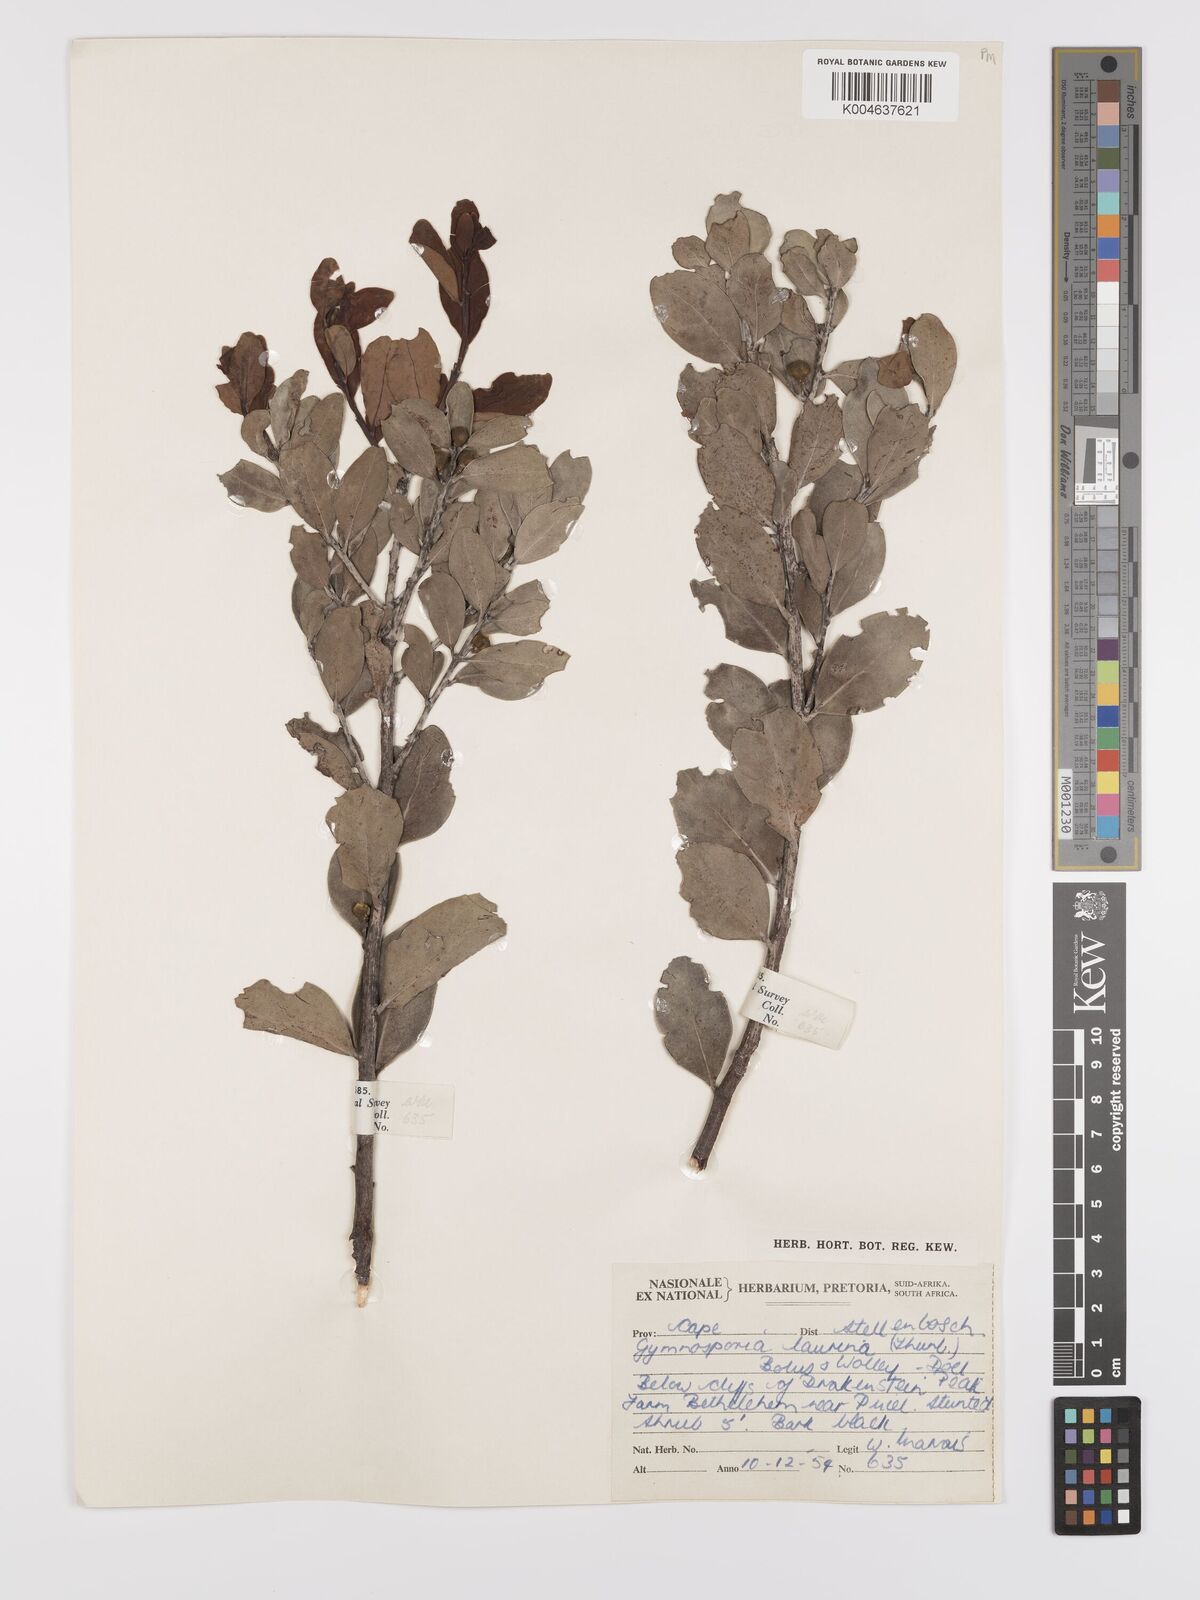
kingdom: Plantae
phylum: Tracheophyta
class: Magnoliopsida
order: Celastrales
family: Celastraceae
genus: Monteverdia
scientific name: Monteverdia laurina
